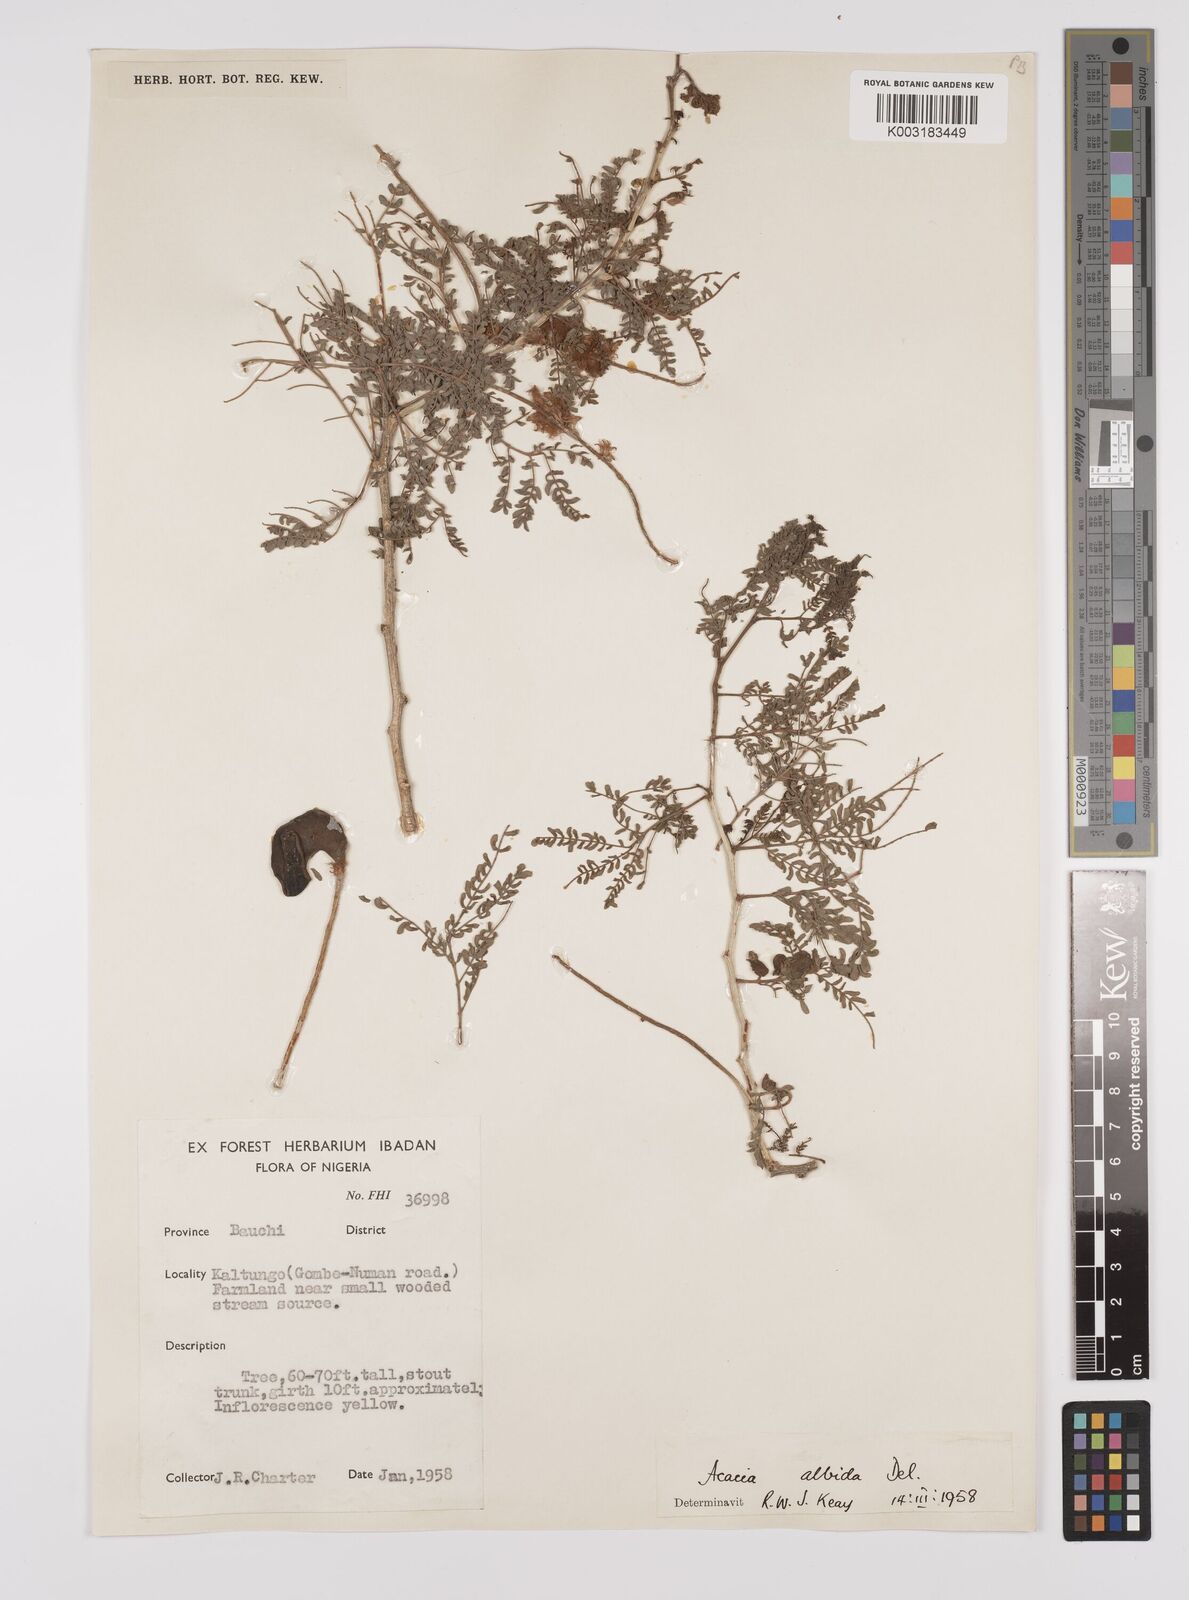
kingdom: Plantae
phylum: Tracheophyta
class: Magnoliopsida
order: Fabales
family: Fabaceae
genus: Faidherbia
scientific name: Faidherbia albida
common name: Anatree
